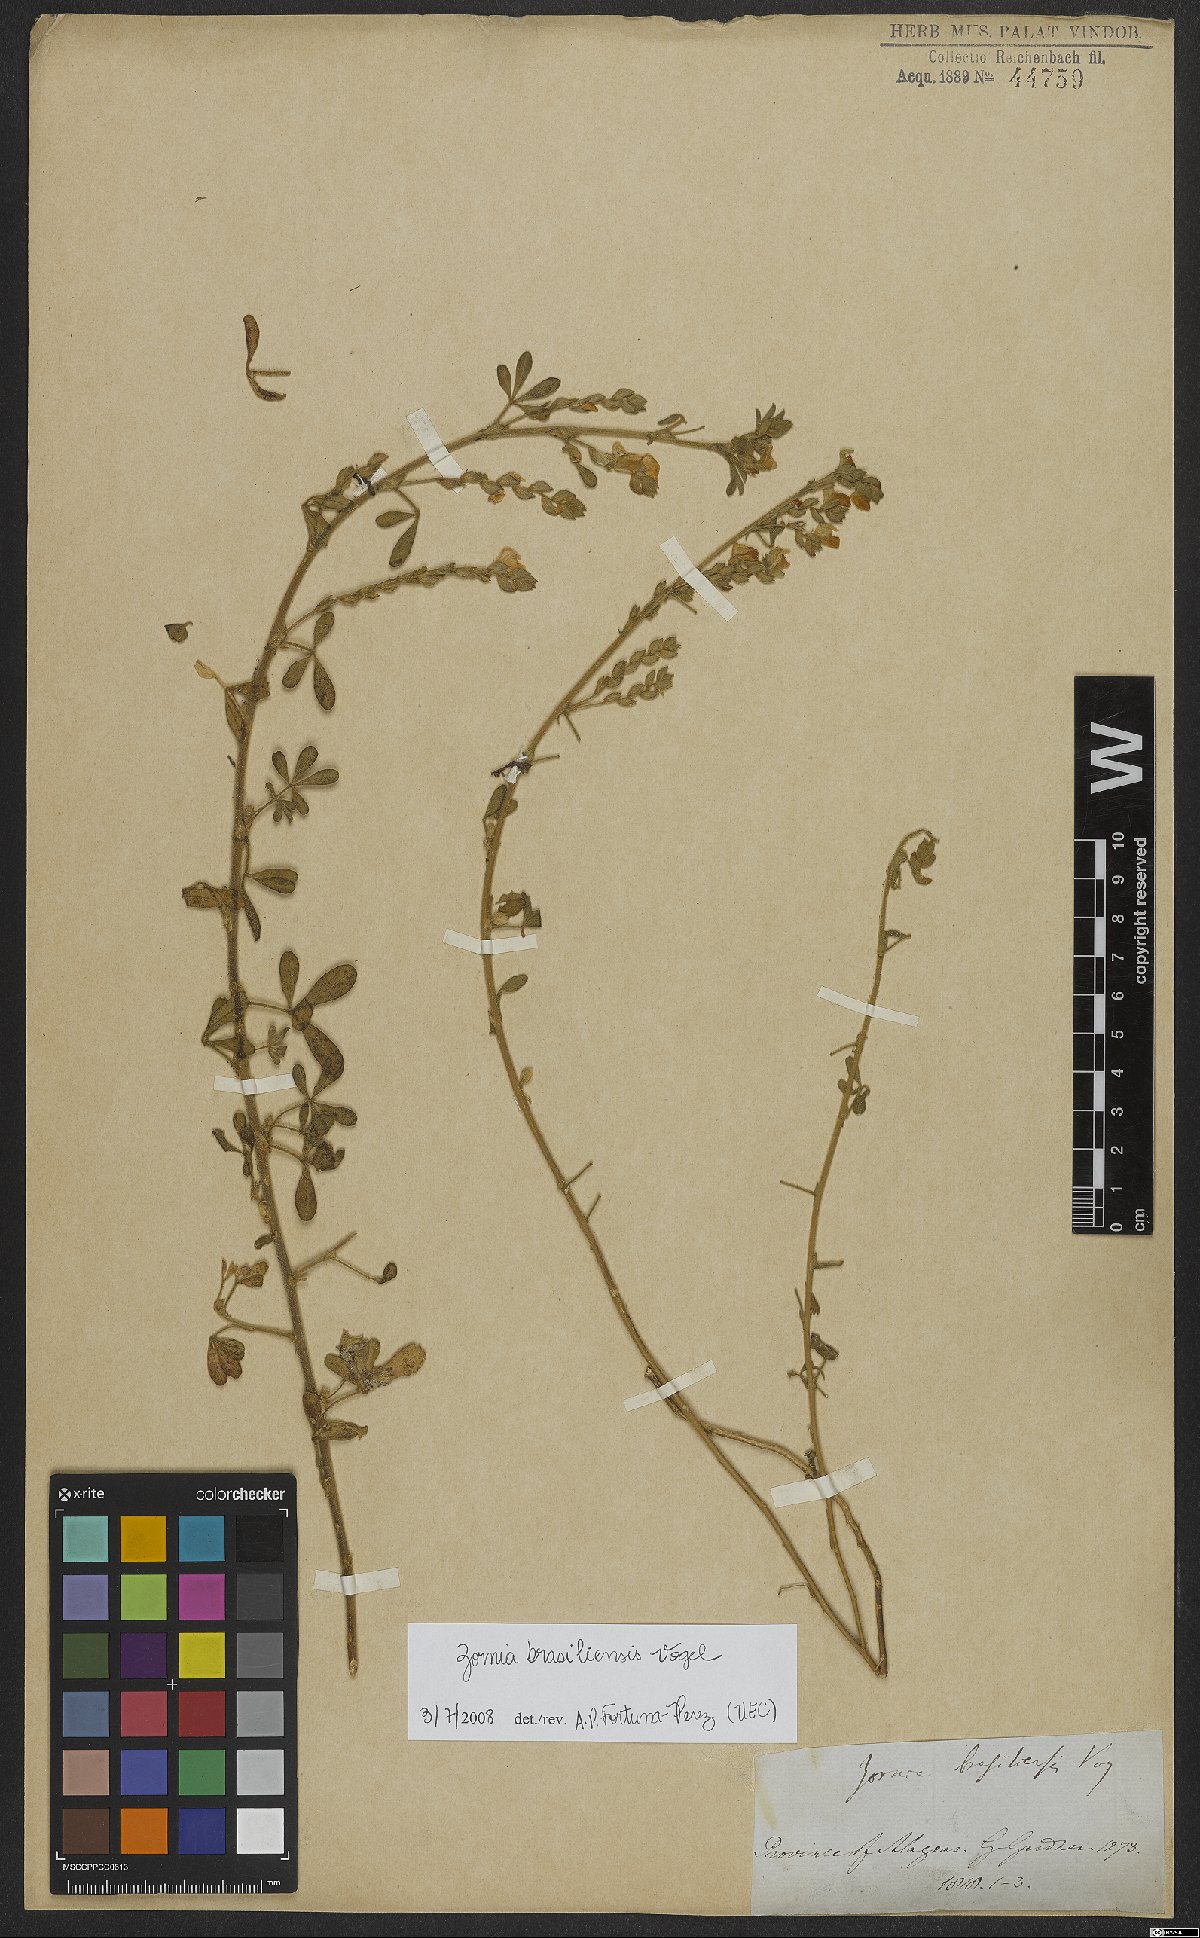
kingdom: Plantae
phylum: Tracheophyta
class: Magnoliopsida
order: Fabales
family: Fabaceae
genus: Zornia
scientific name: Zornia brasiliensis
